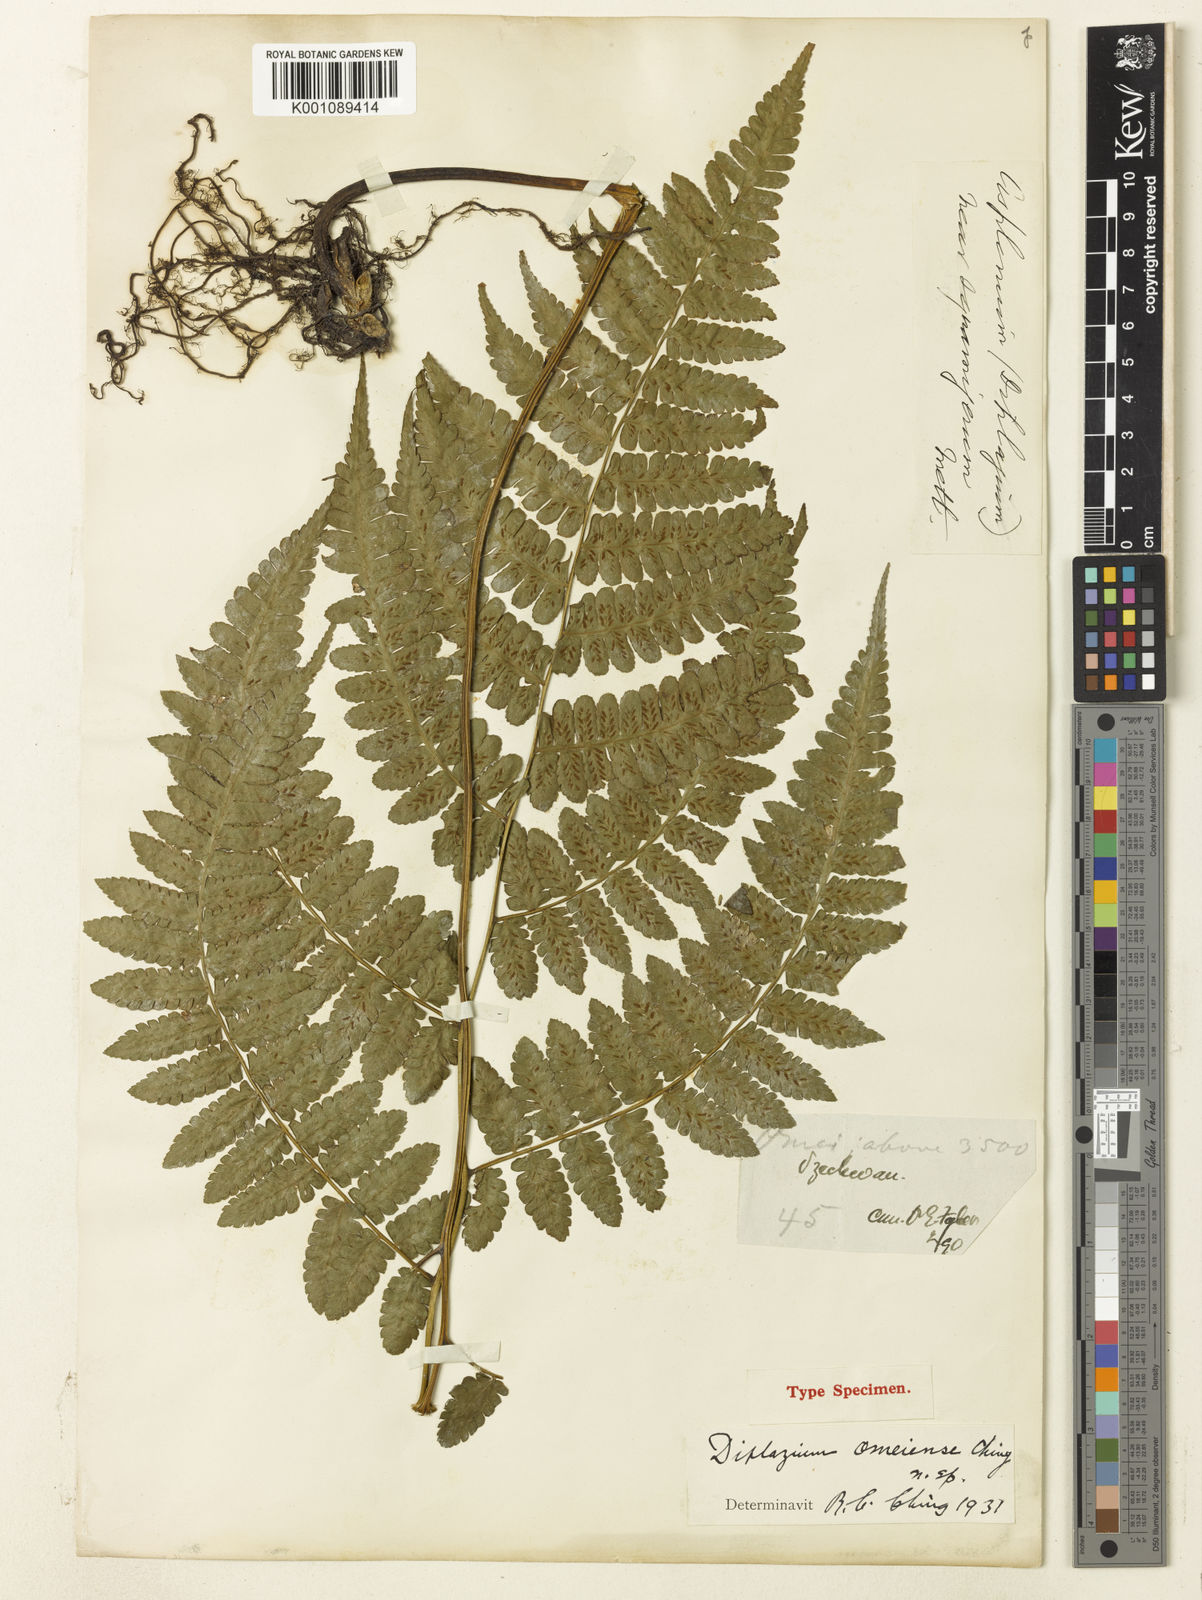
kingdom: Plantae
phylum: Tracheophyta
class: Polypodiopsida
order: Polypodiales
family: Athyriaceae
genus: Diplazium
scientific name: Diplazium hachijoense
